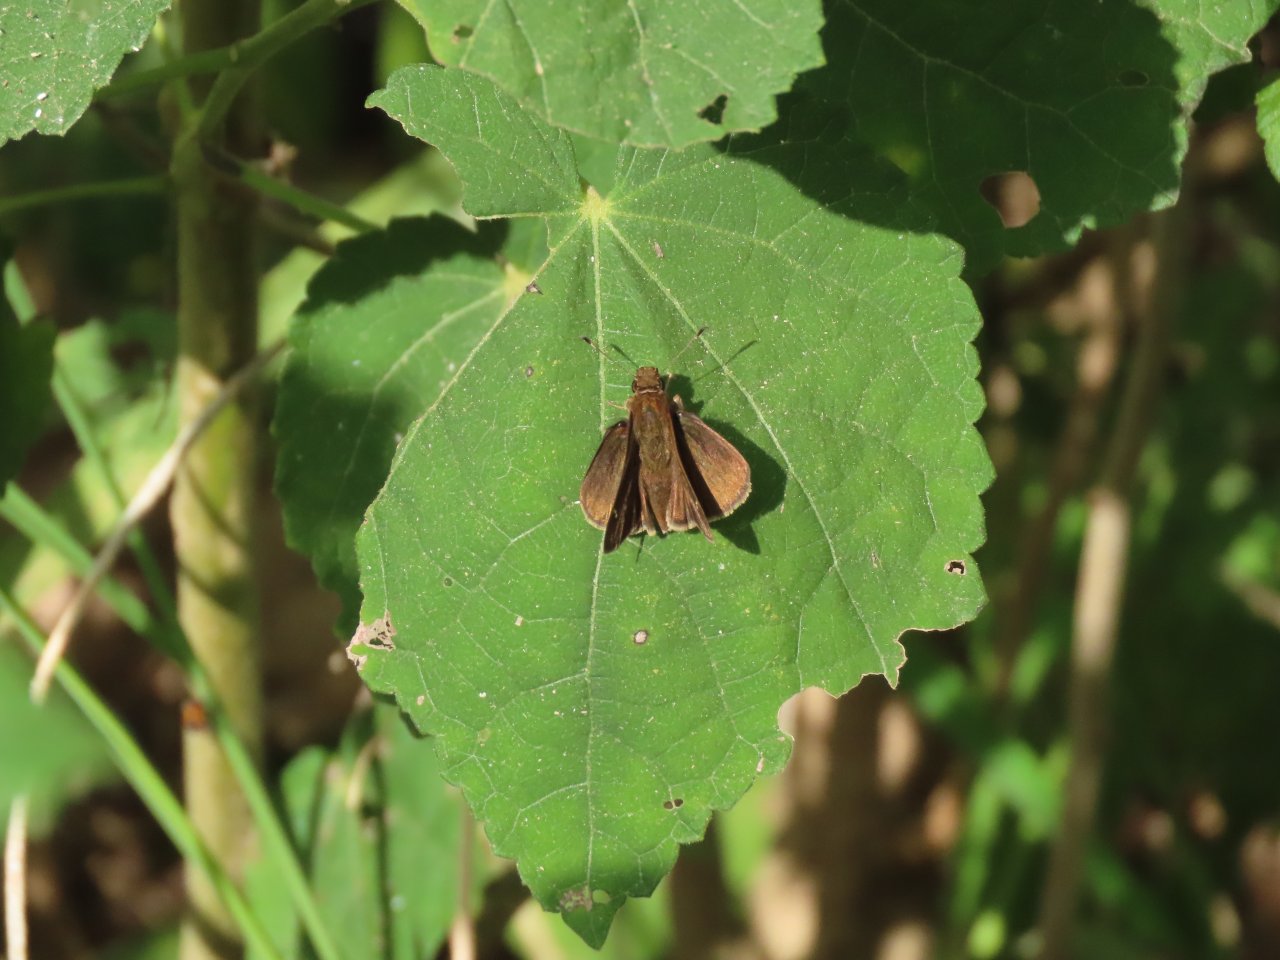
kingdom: Animalia
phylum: Arthropoda
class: Insecta
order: Lepidoptera
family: Hesperiidae
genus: Lerema
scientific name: Lerema accius
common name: Clouded Skipper
